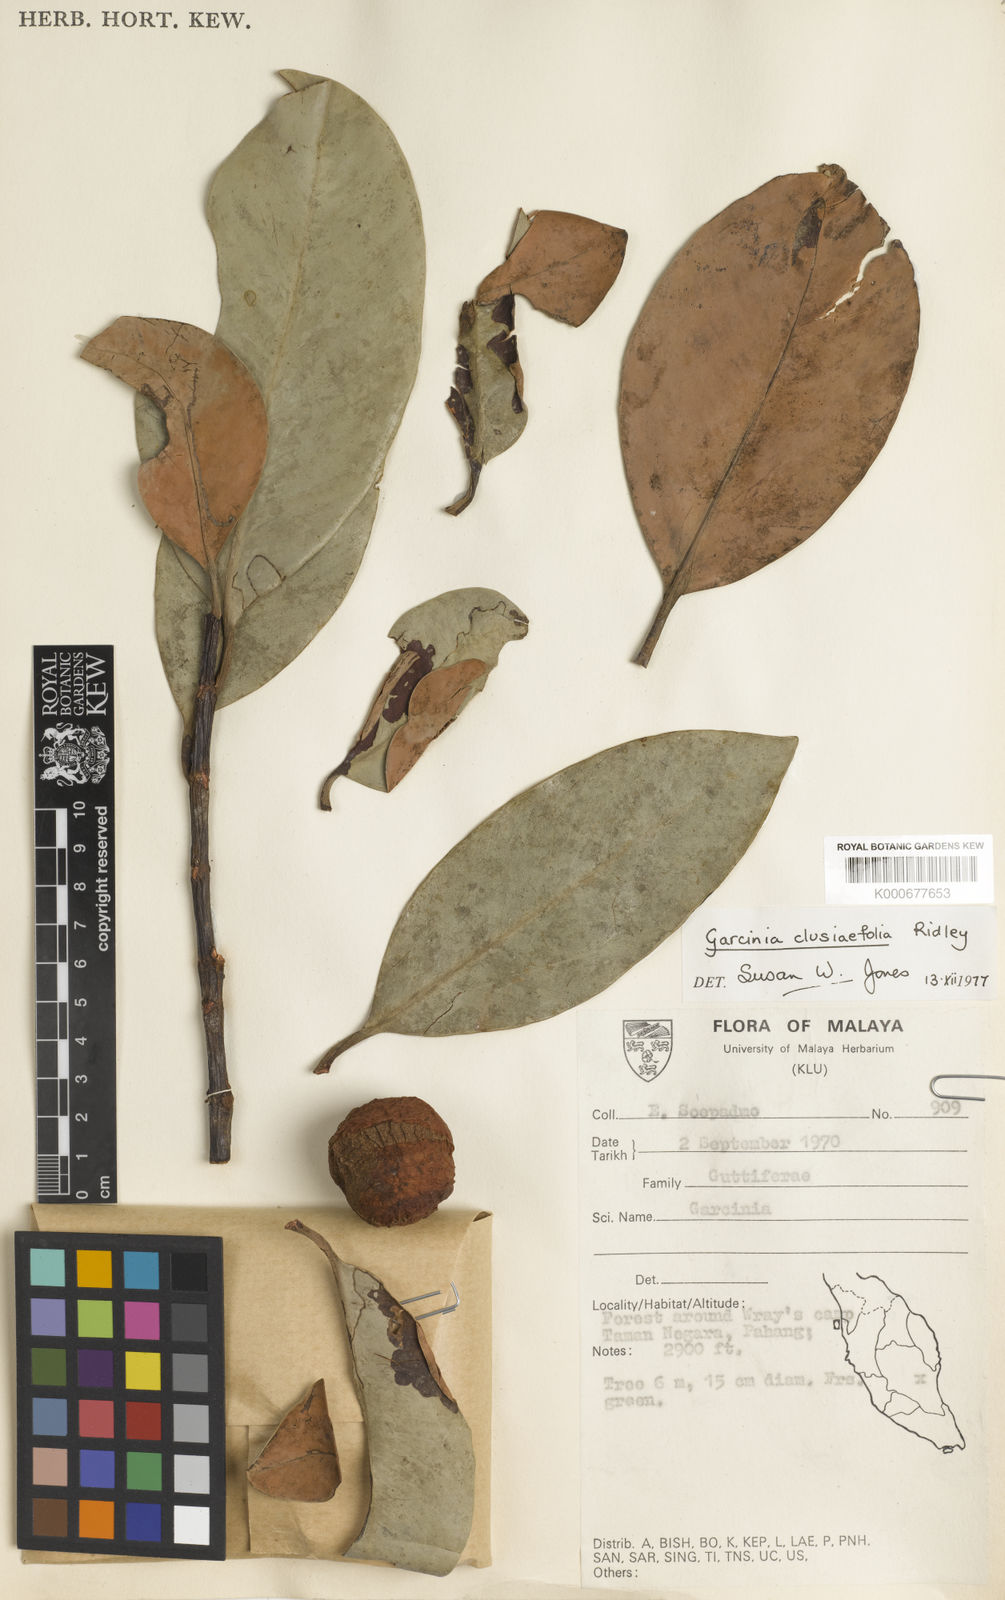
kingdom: Plantae
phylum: Tracheophyta
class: Magnoliopsida
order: Malpighiales
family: Clusiaceae
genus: Garcinia
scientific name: Garcinia clusiifolia
